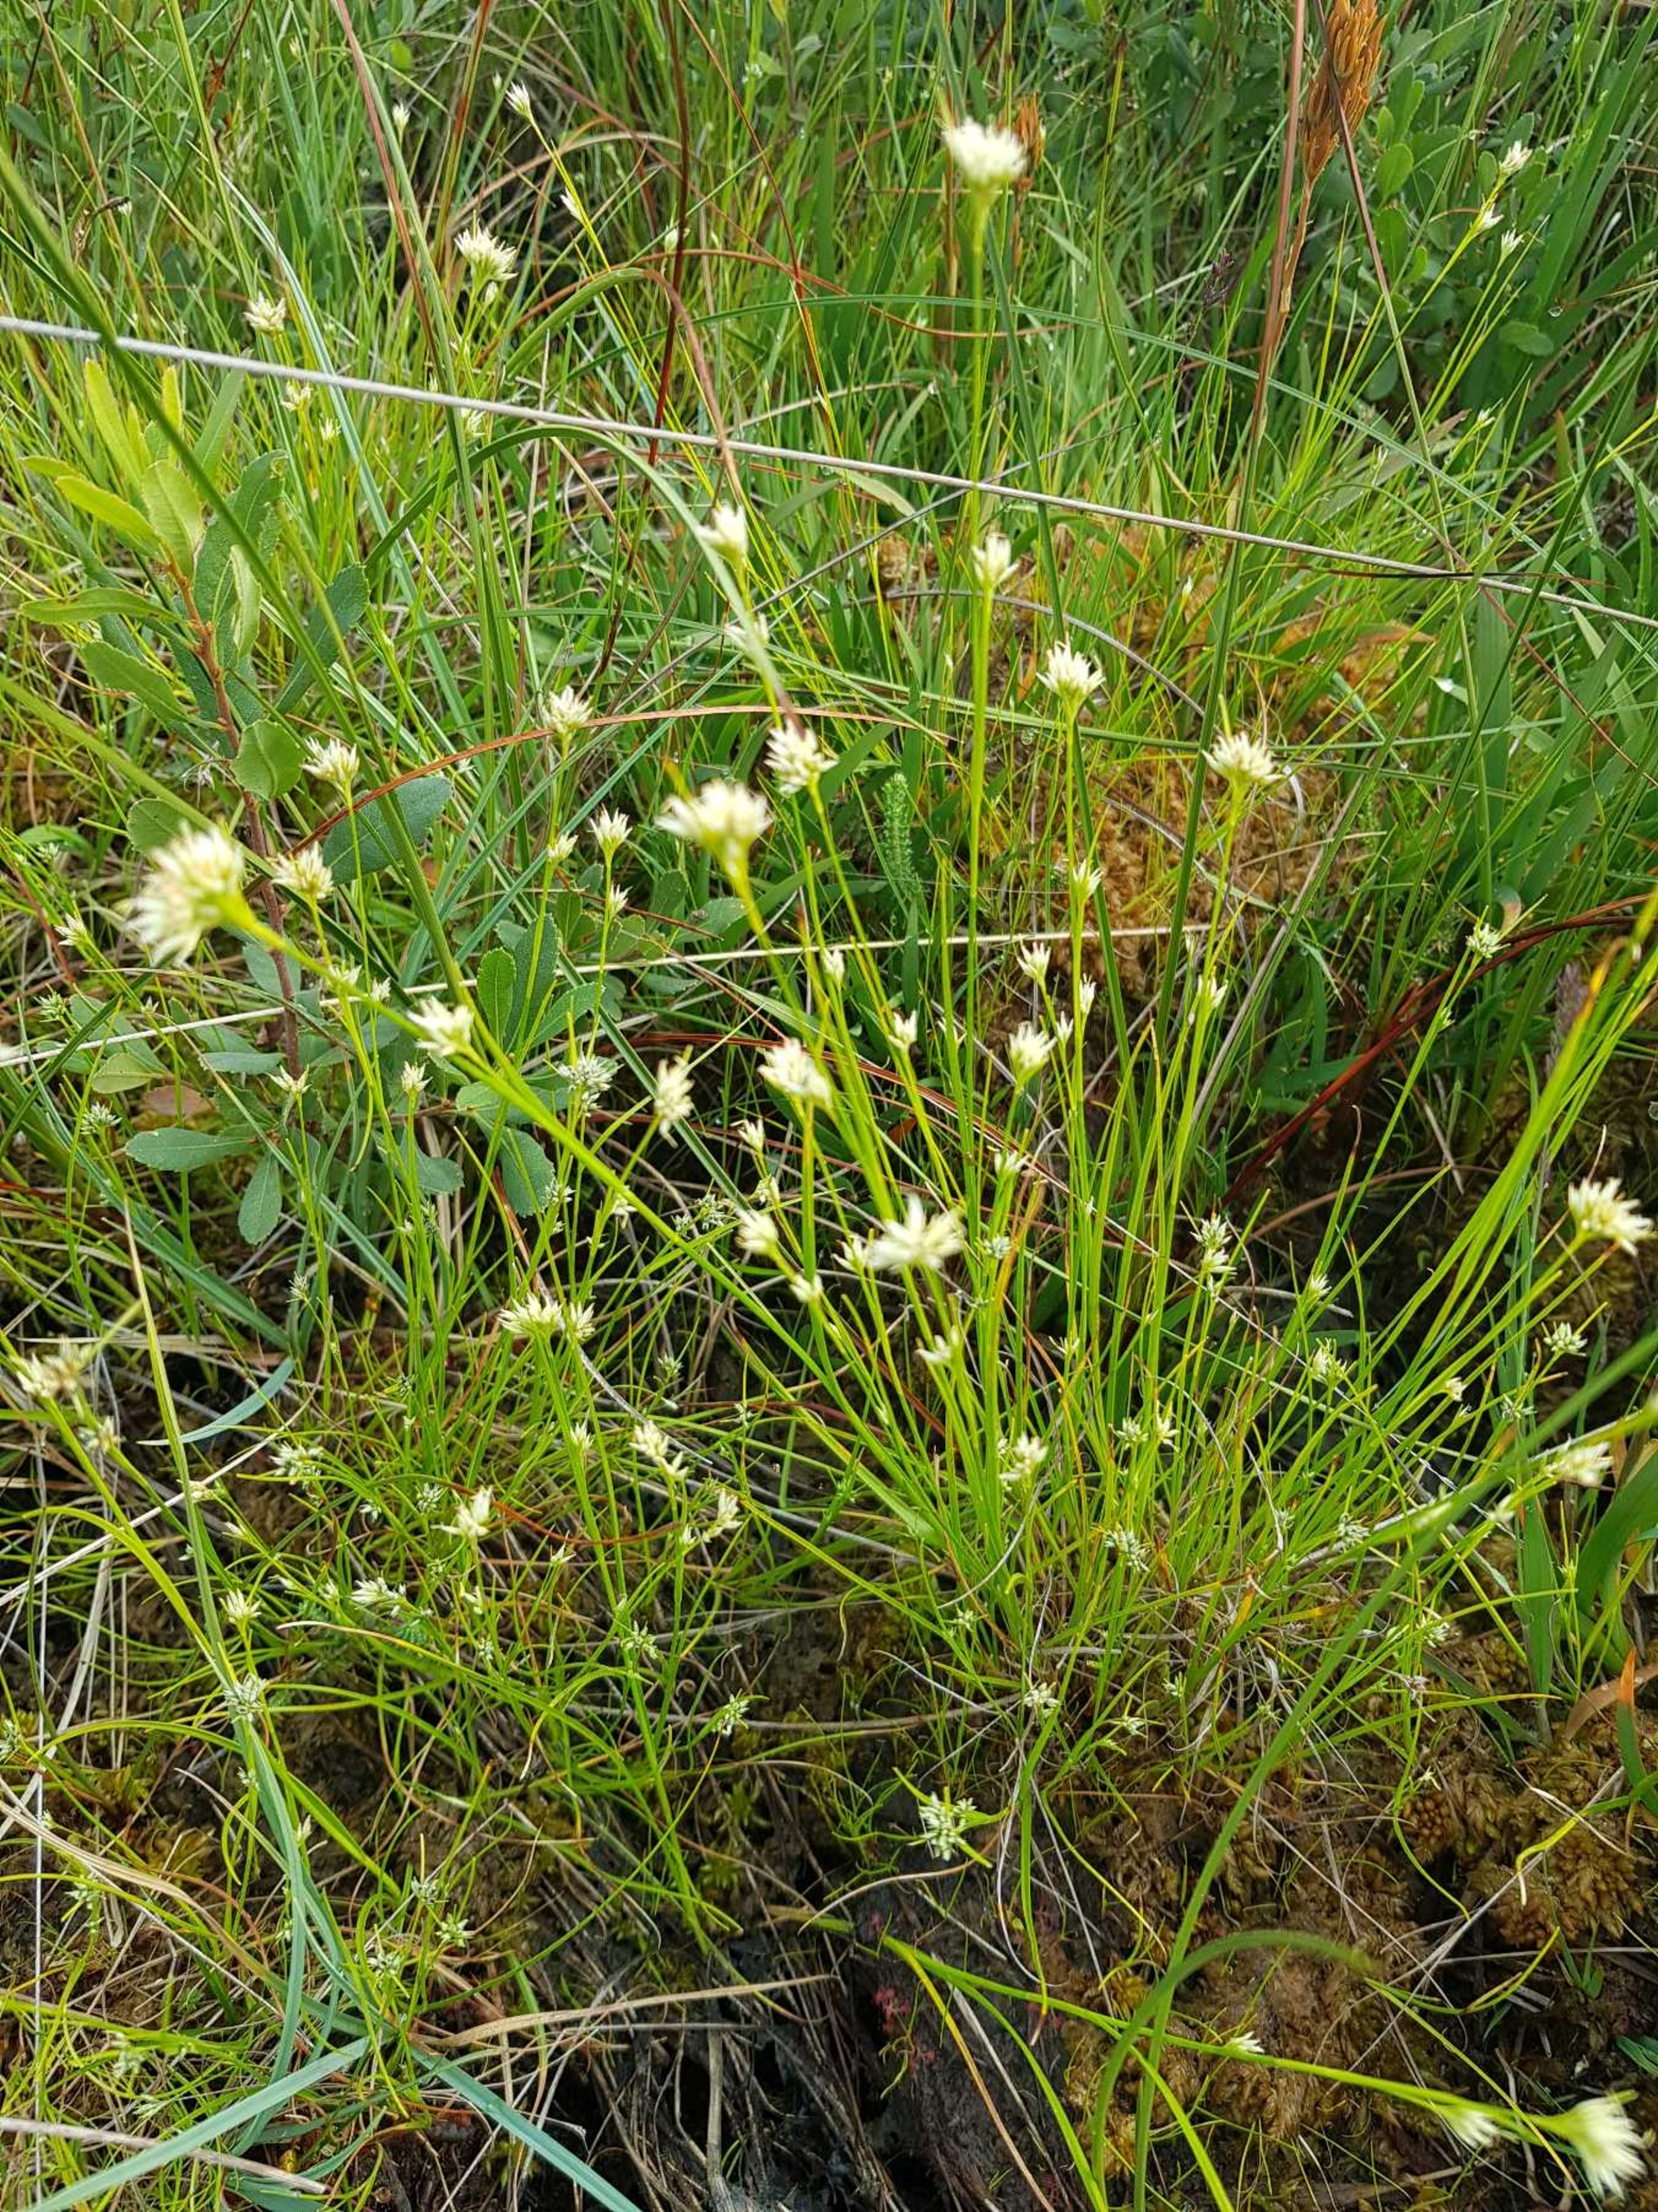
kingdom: Plantae
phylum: Tracheophyta
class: Liliopsida
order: Poales
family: Cyperaceae
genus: Rhynchospora
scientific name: Rhynchospora alba
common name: Hvid næbfrø
